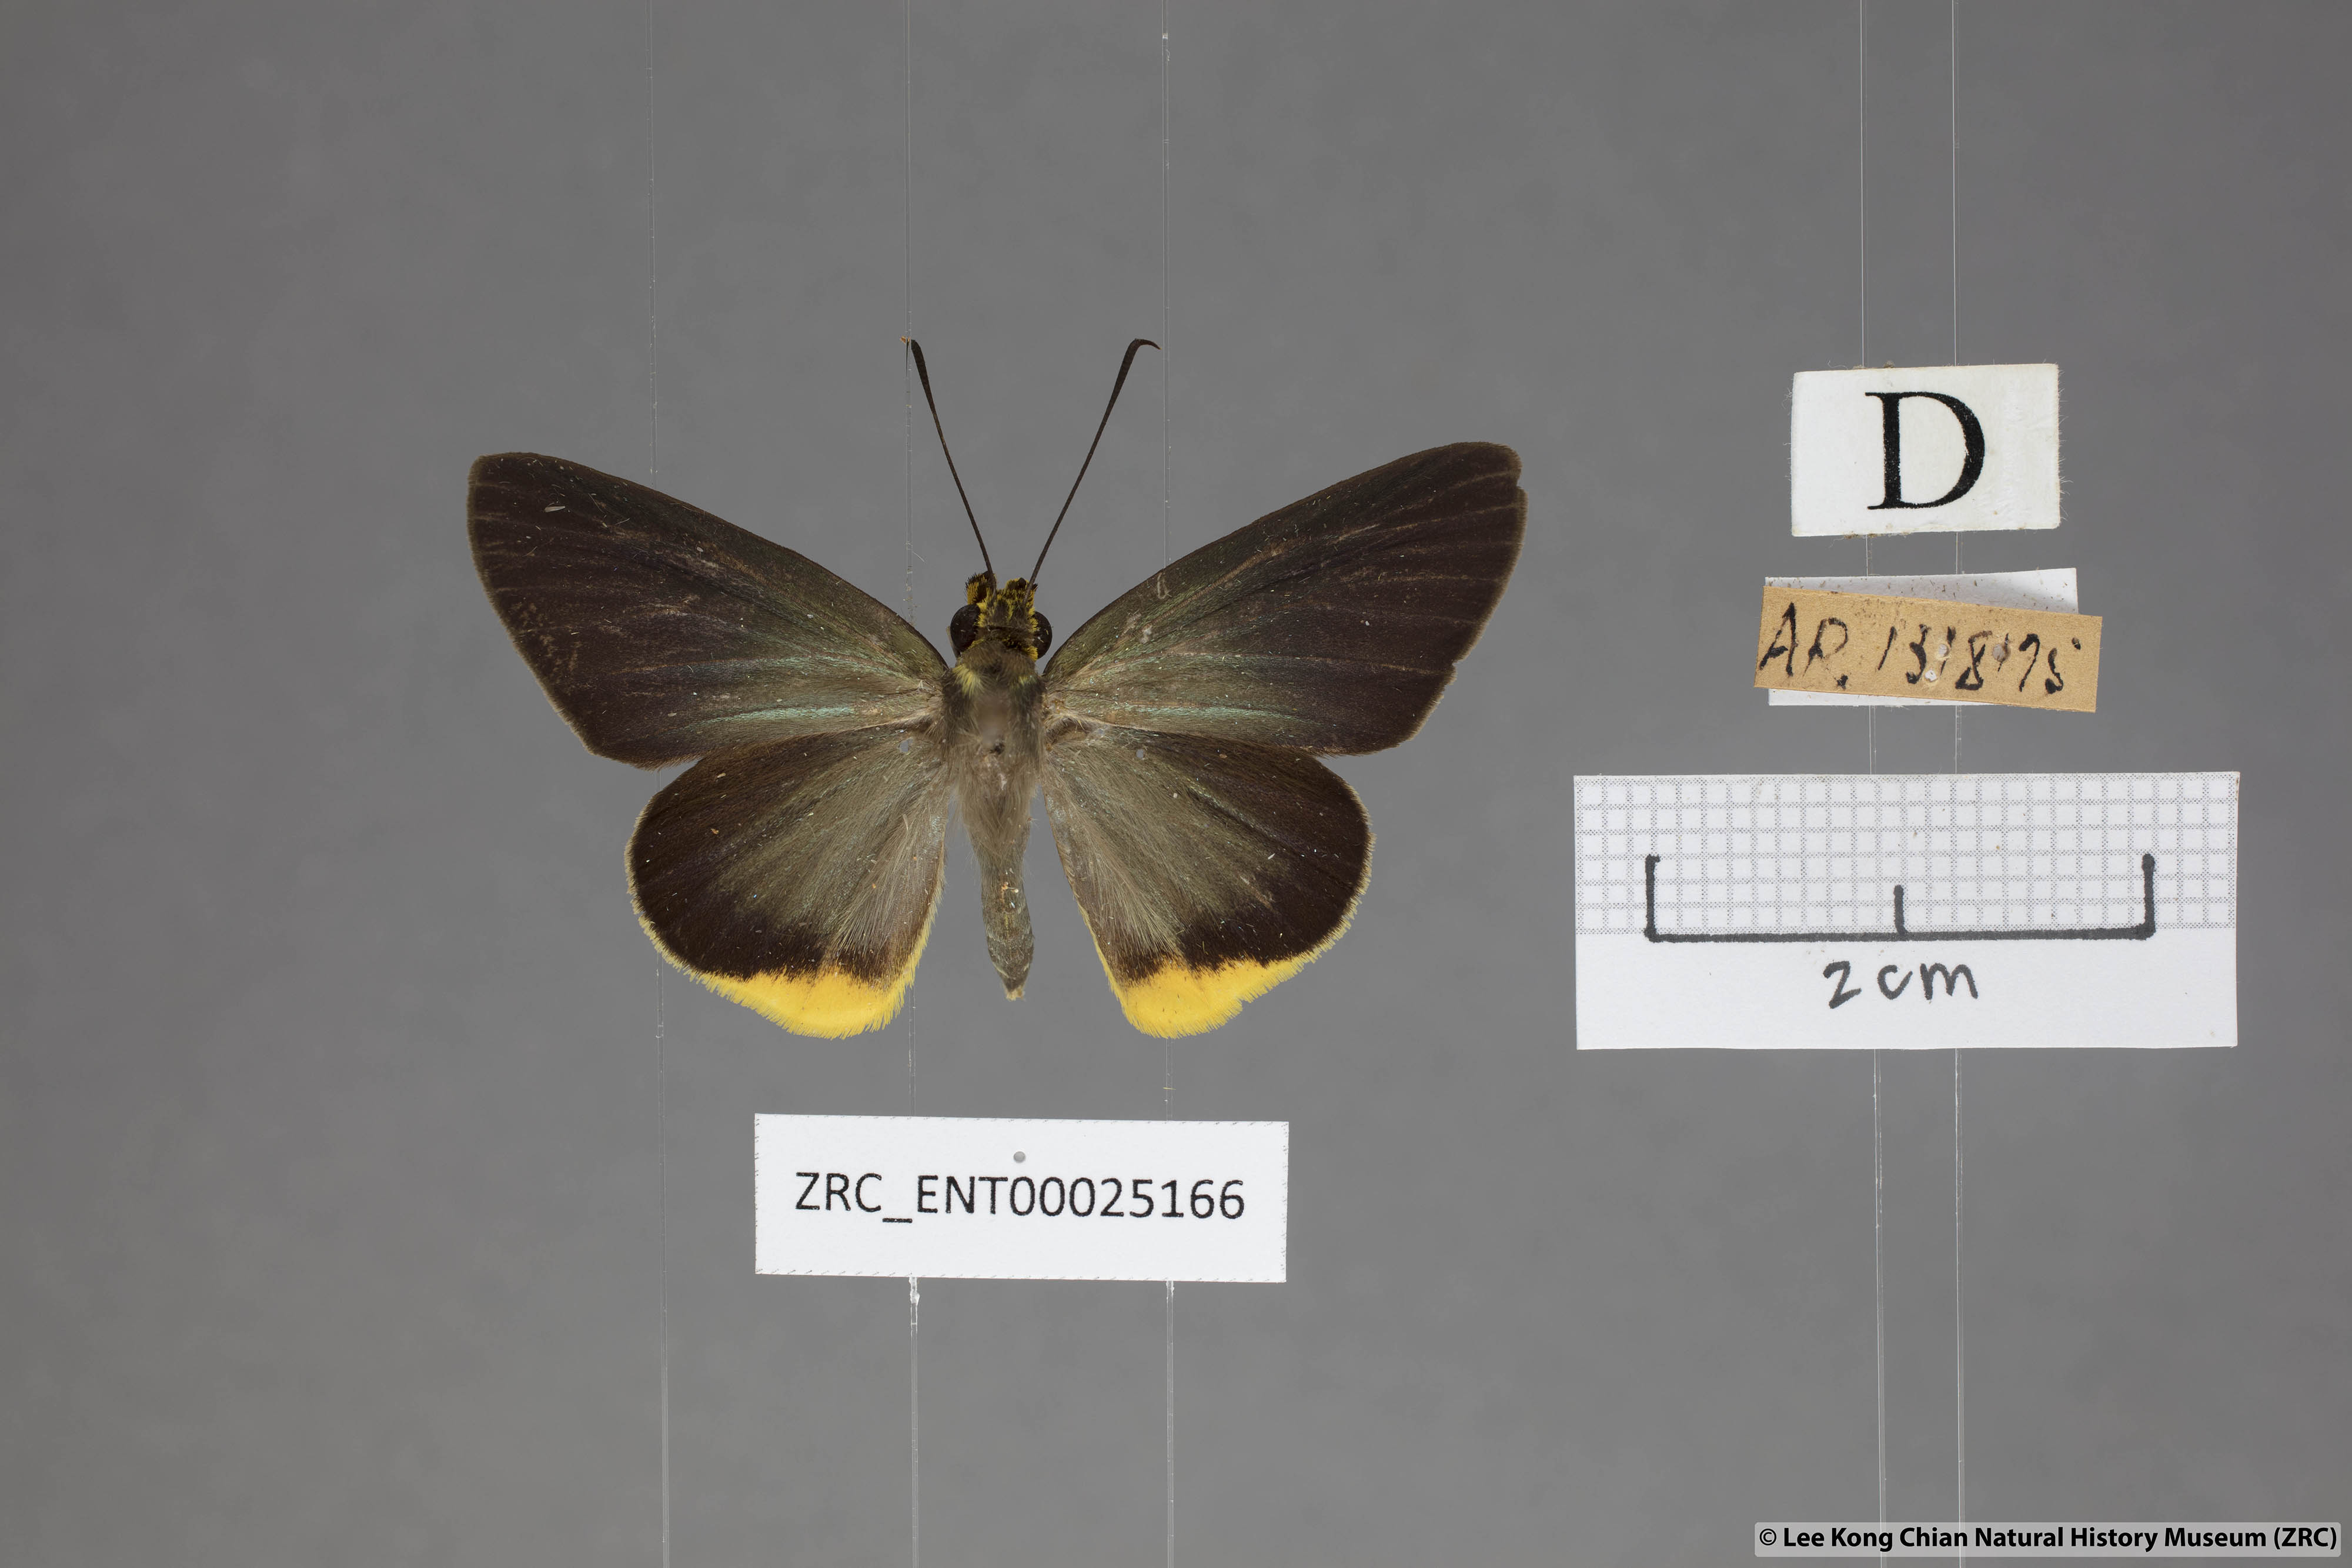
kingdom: Animalia
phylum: Arthropoda
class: Insecta
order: Lepidoptera
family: Hesperiidae
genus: Pirdana
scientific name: Pirdana hyela
